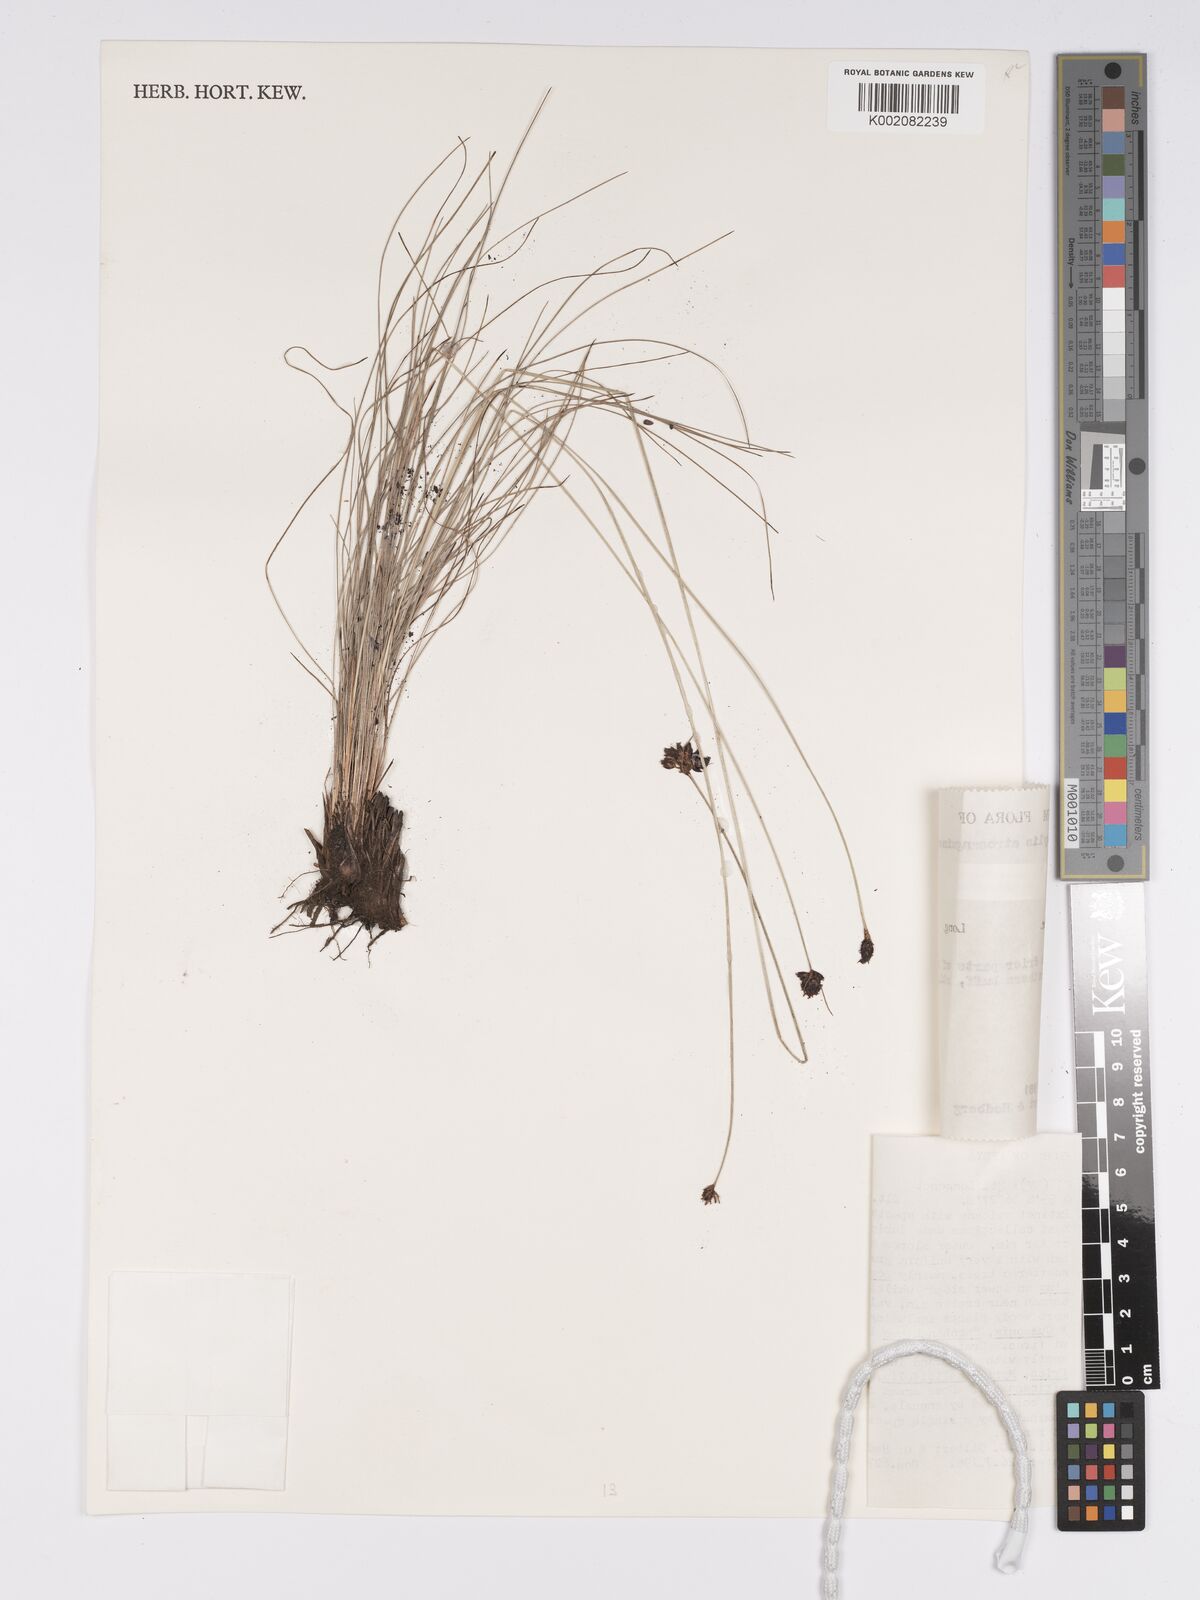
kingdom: Plantae
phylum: Tracheophyta
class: Liliopsida
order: Poales
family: Cyperaceae
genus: Bulbostylis
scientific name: Bulbostylis atrosanguinea
